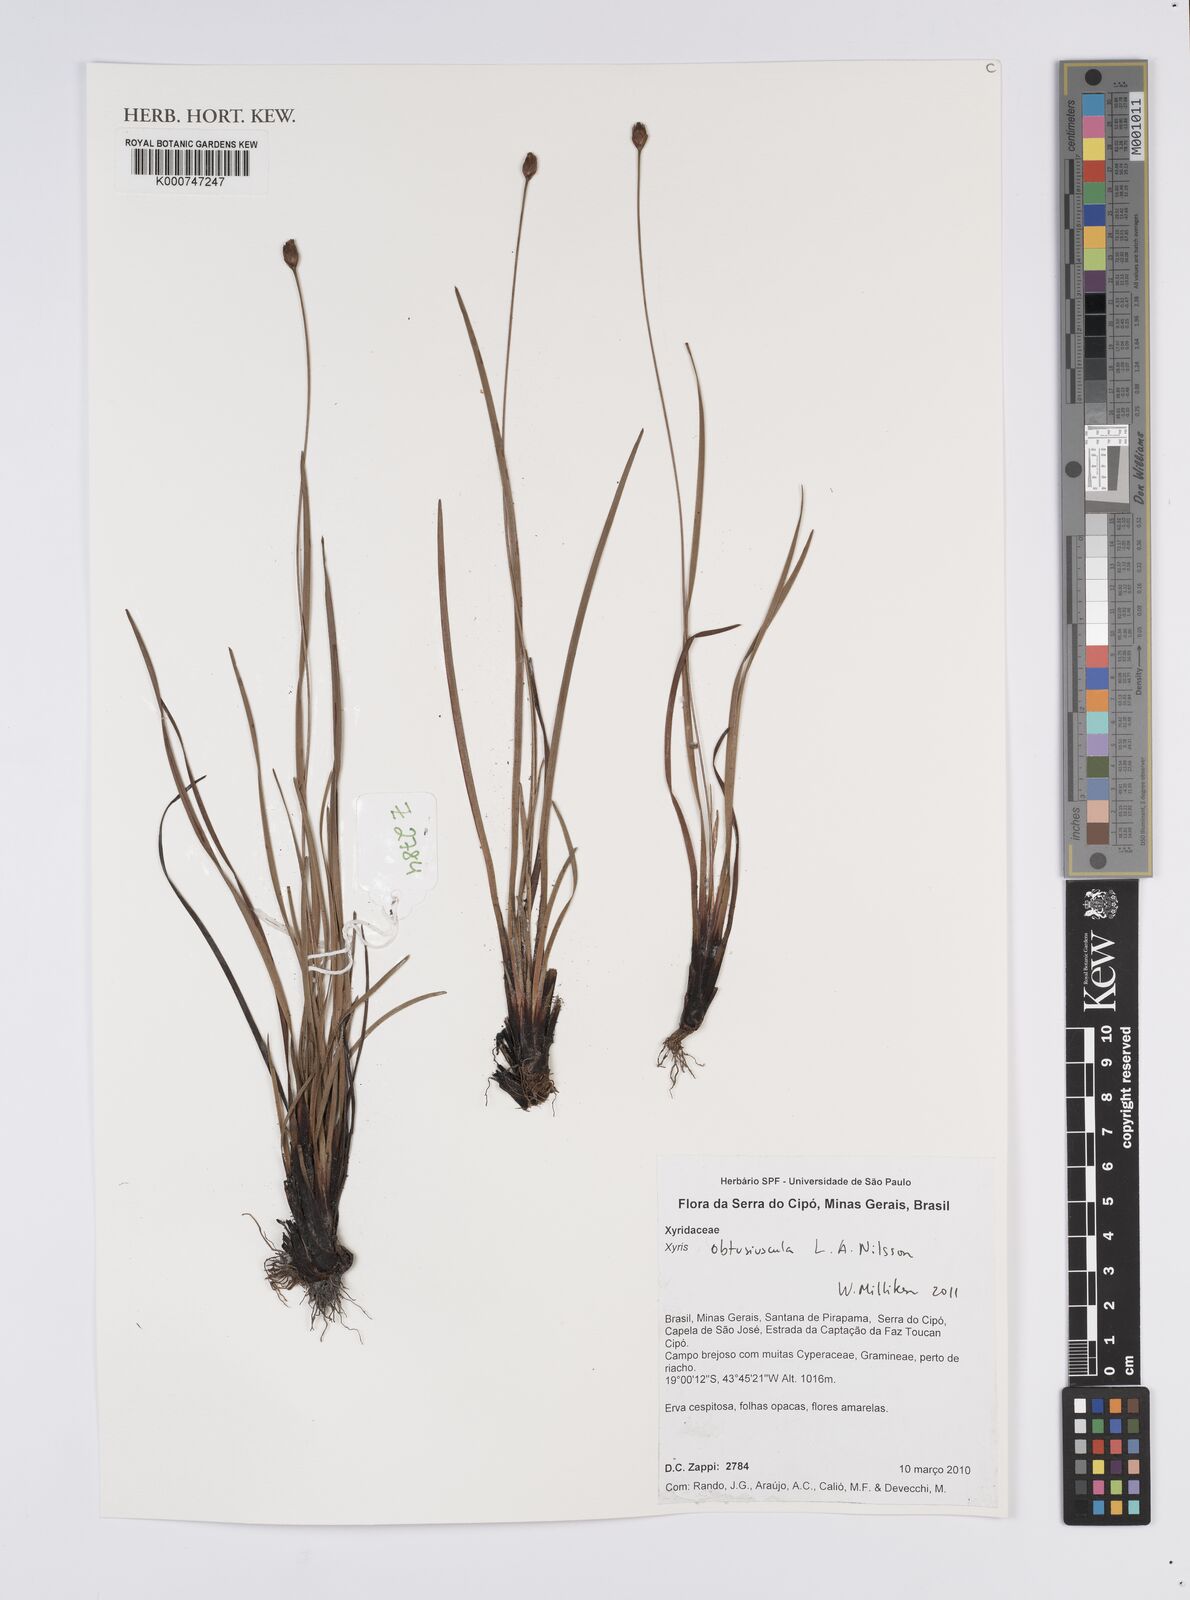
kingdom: Plantae
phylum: Tracheophyta
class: Liliopsida
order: Poales
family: Xyridaceae
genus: Xyris
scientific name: Xyris obtusiuscula
